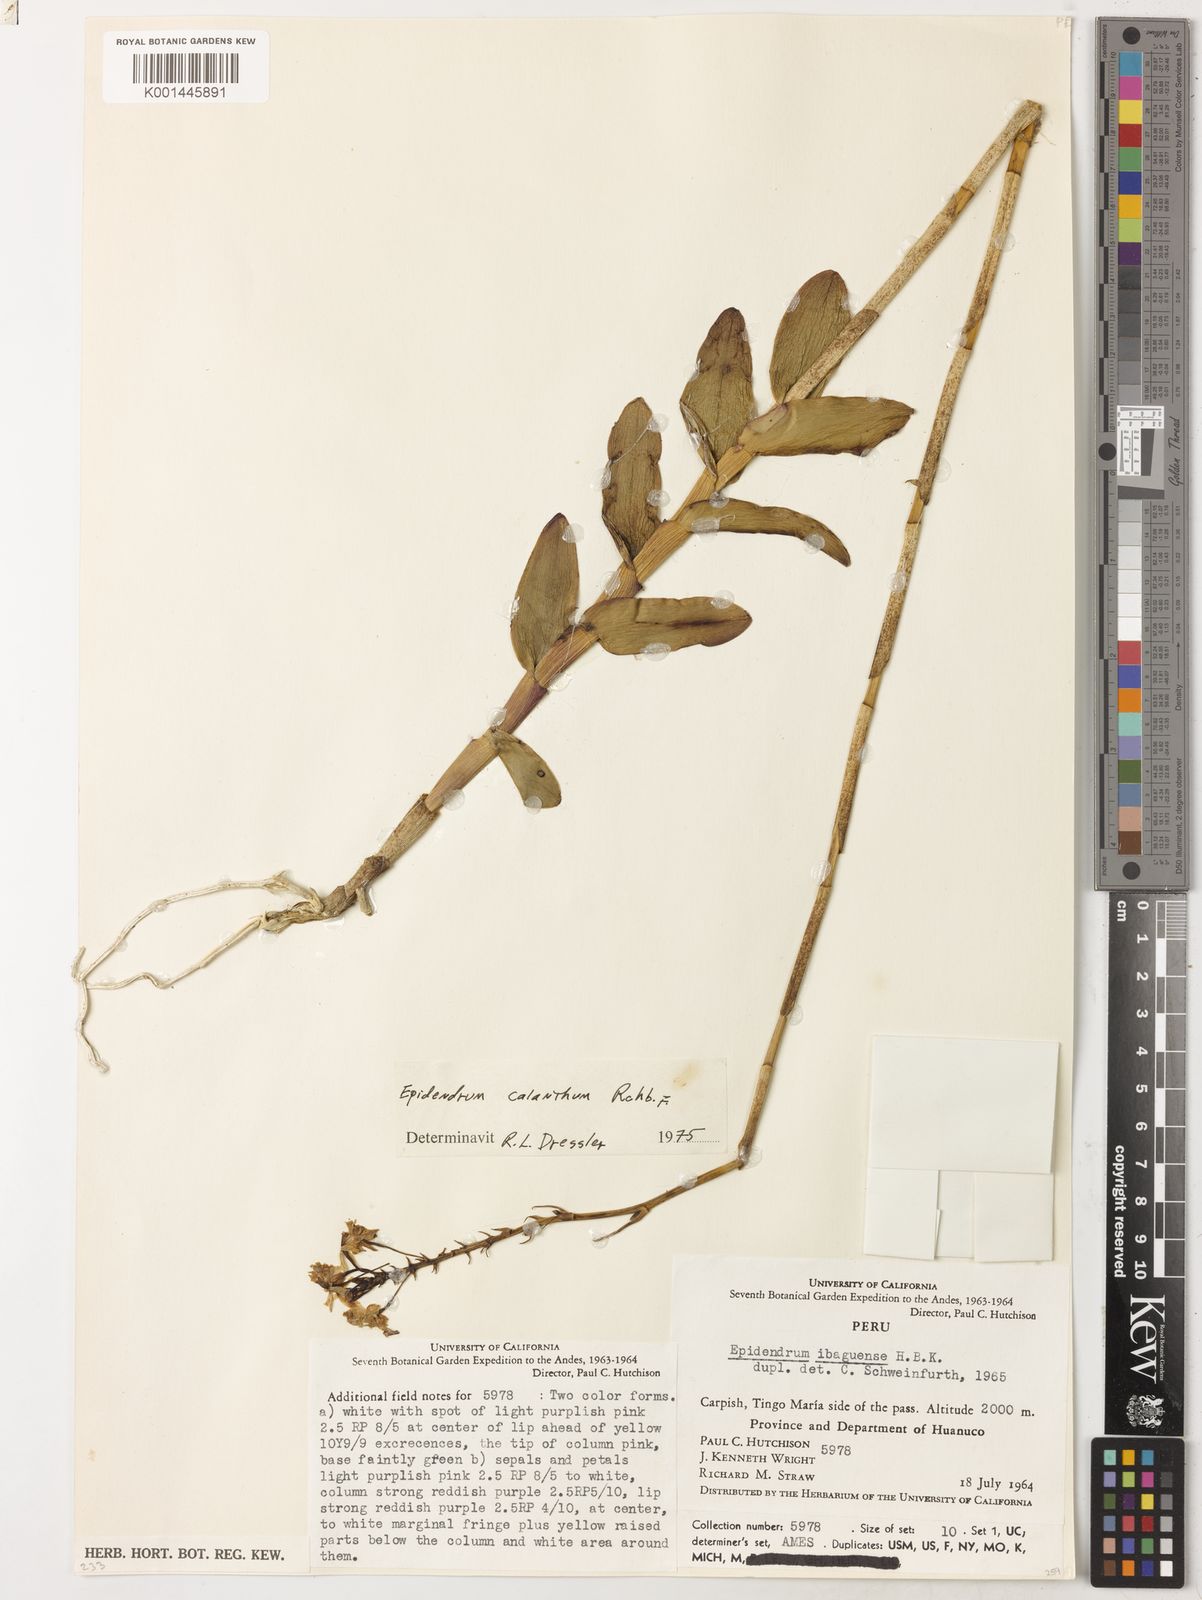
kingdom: Plantae
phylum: Tracheophyta
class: Liliopsida
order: Asparagales
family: Orchidaceae
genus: Epidendrum
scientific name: Epidendrum calanthum
